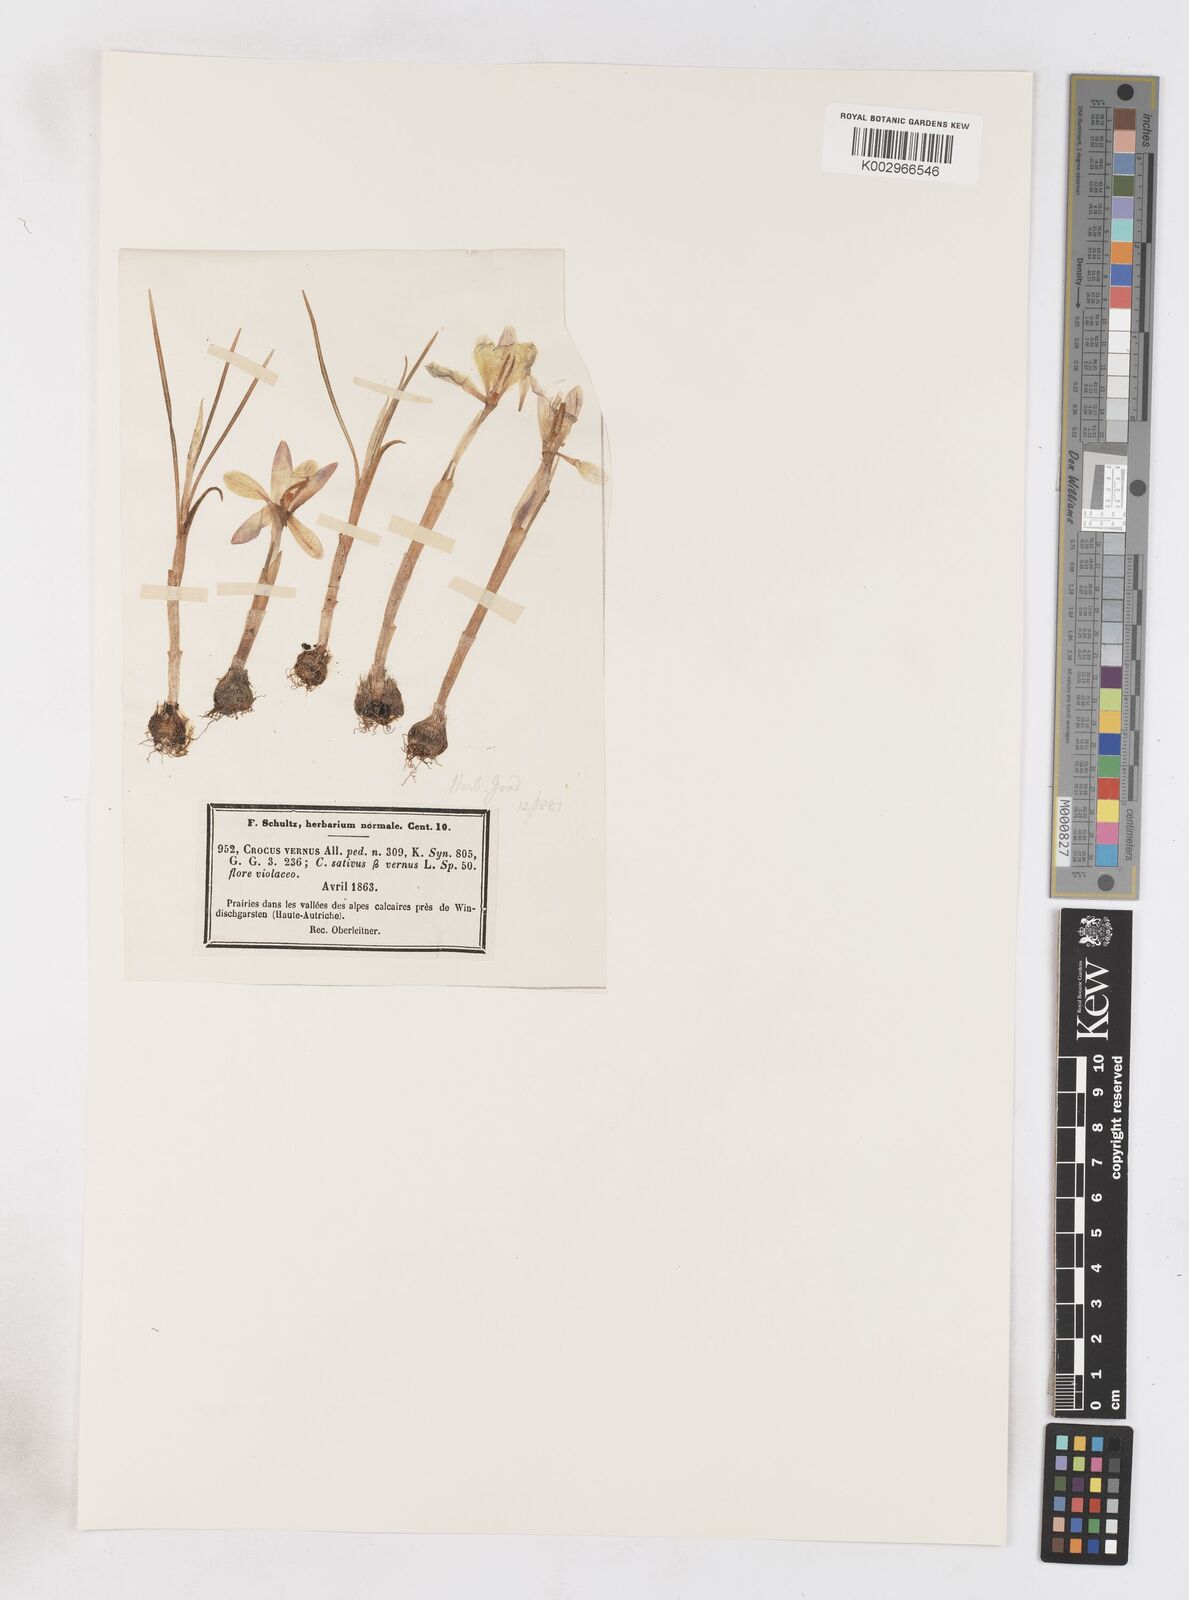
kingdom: Plantae
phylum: Tracheophyta
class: Liliopsida
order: Asparagales
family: Iridaceae
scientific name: Iridaceae
